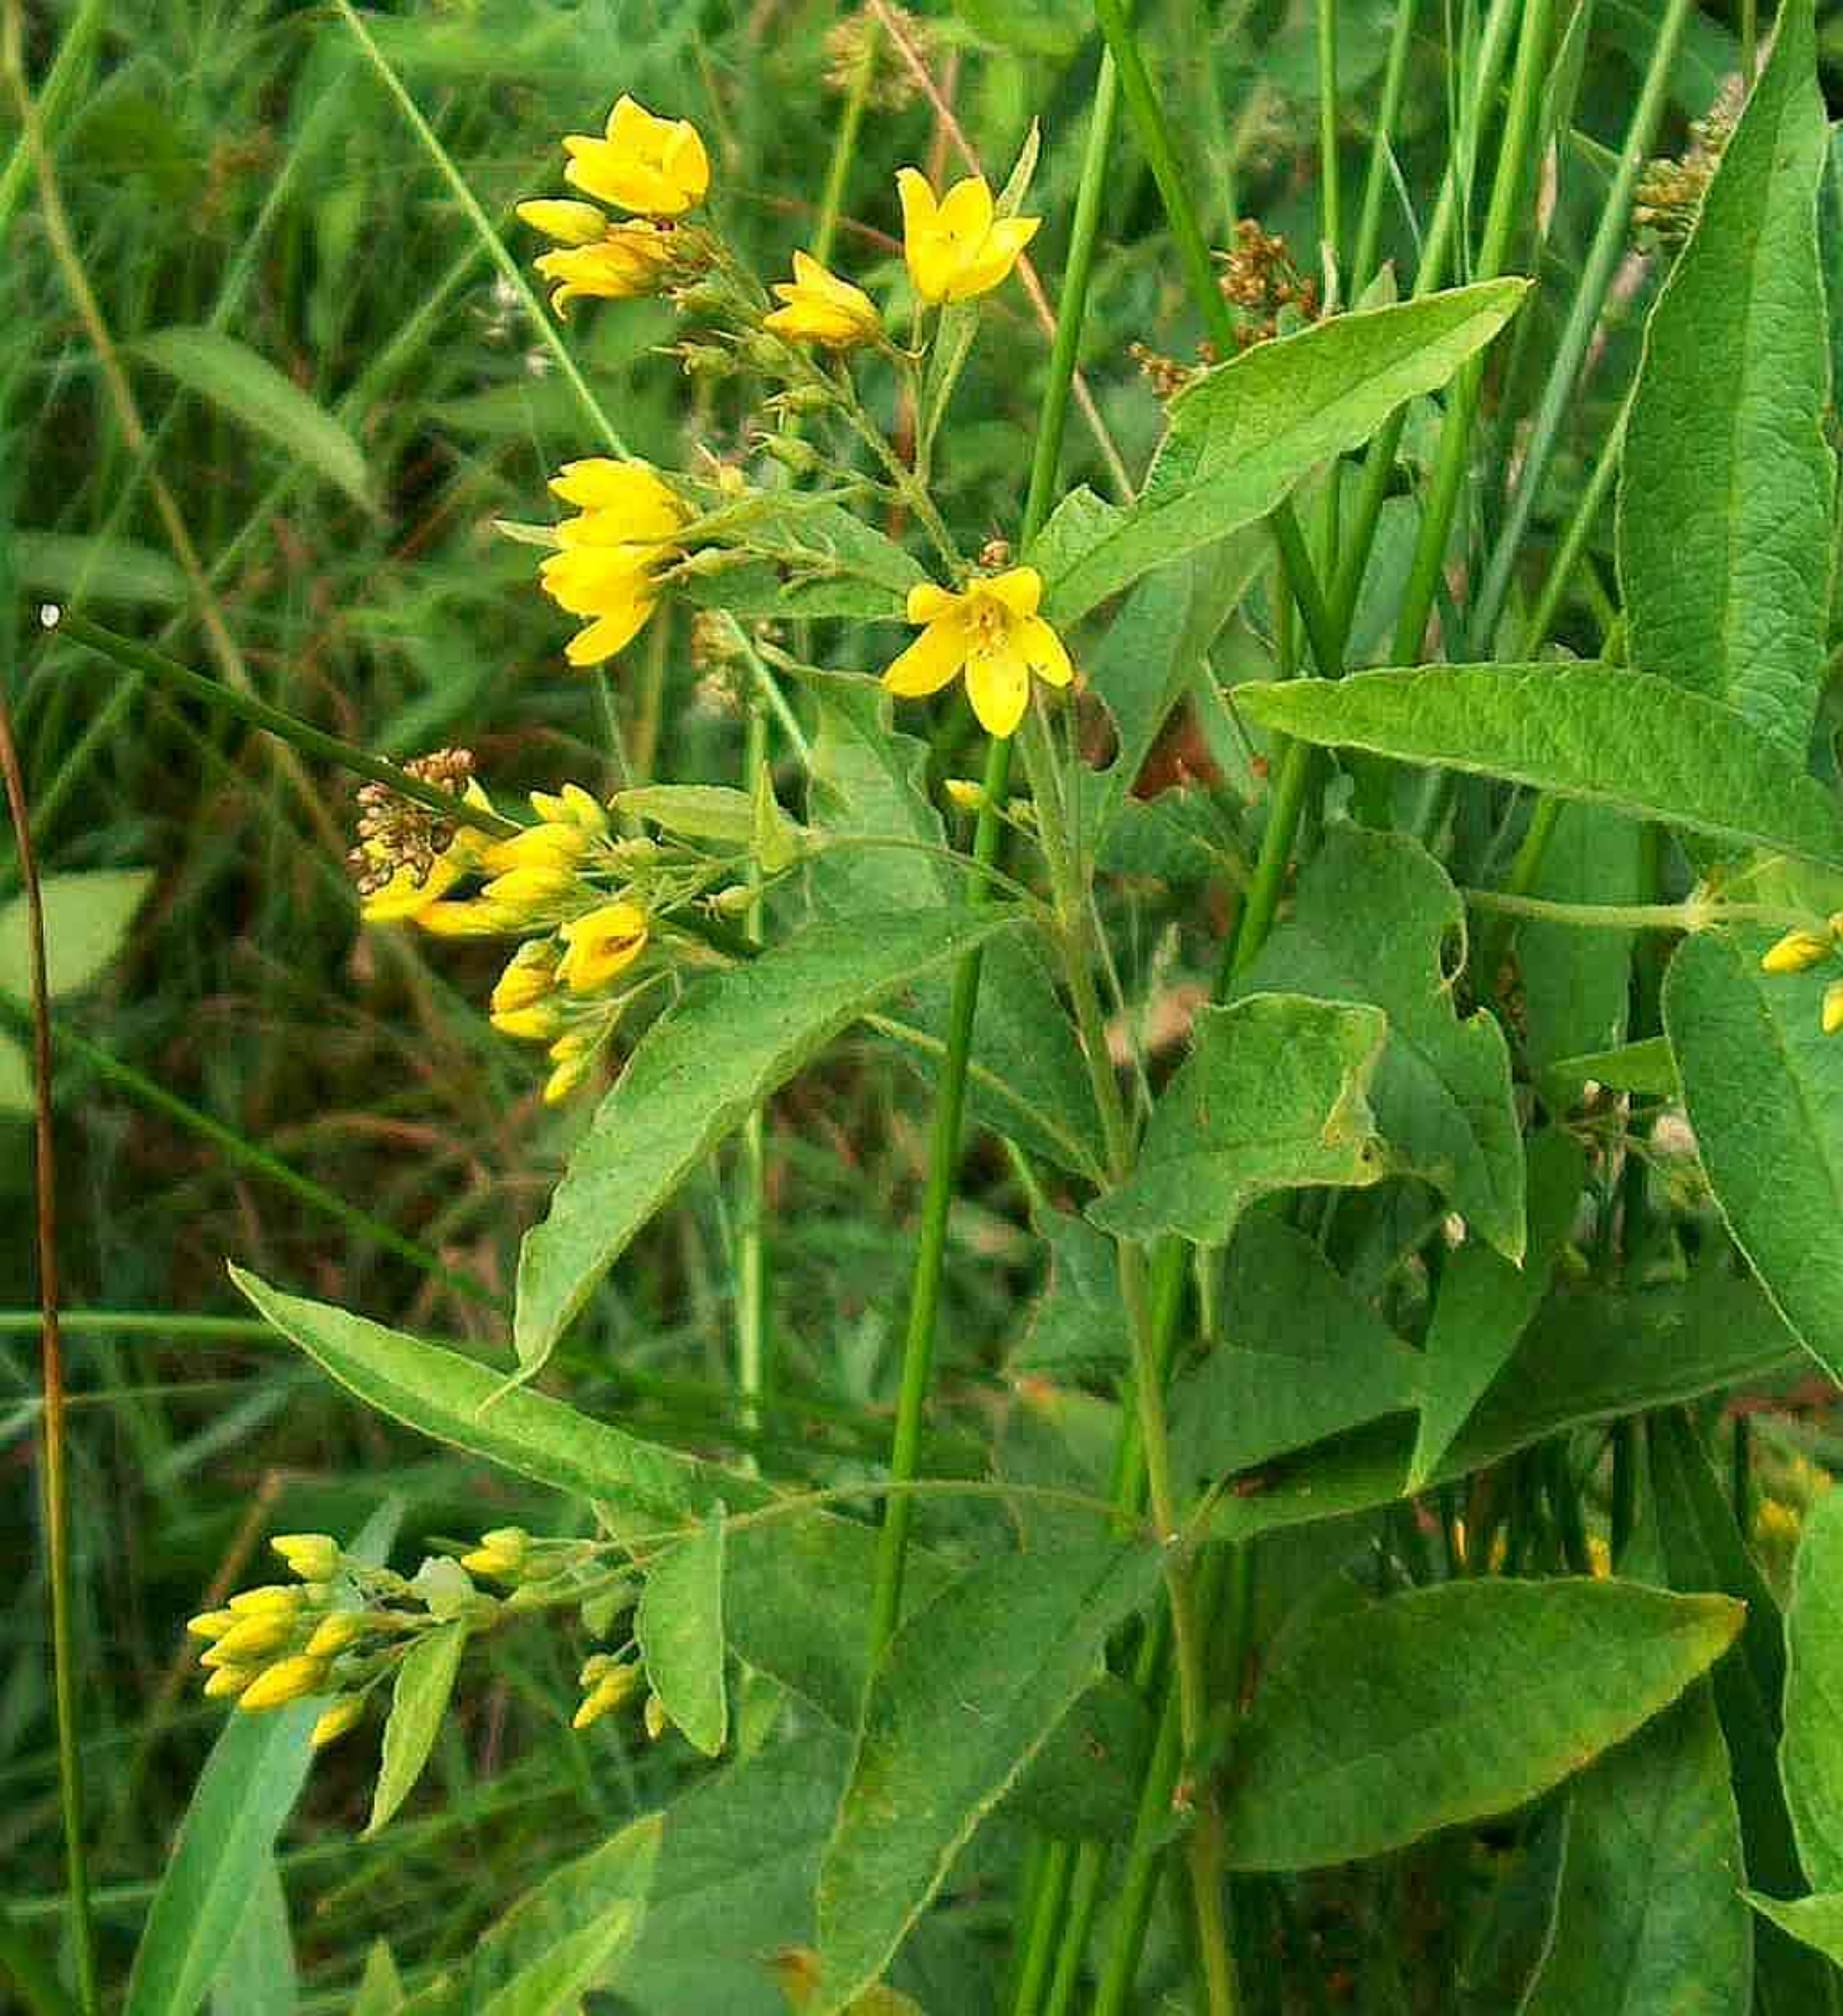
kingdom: Plantae
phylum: Tracheophyta
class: Magnoliopsida
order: Ericales
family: Primulaceae
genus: Lysimachia
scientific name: Lysimachia vulgaris
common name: Almindelig fredløs
